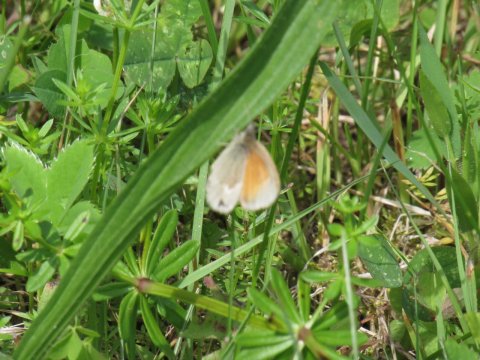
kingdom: Animalia
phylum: Arthropoda
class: Insecta
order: Lepidoptera
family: Nymphalidae
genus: Coenonympha
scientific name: Coenonympha tullia
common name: Large Heath
